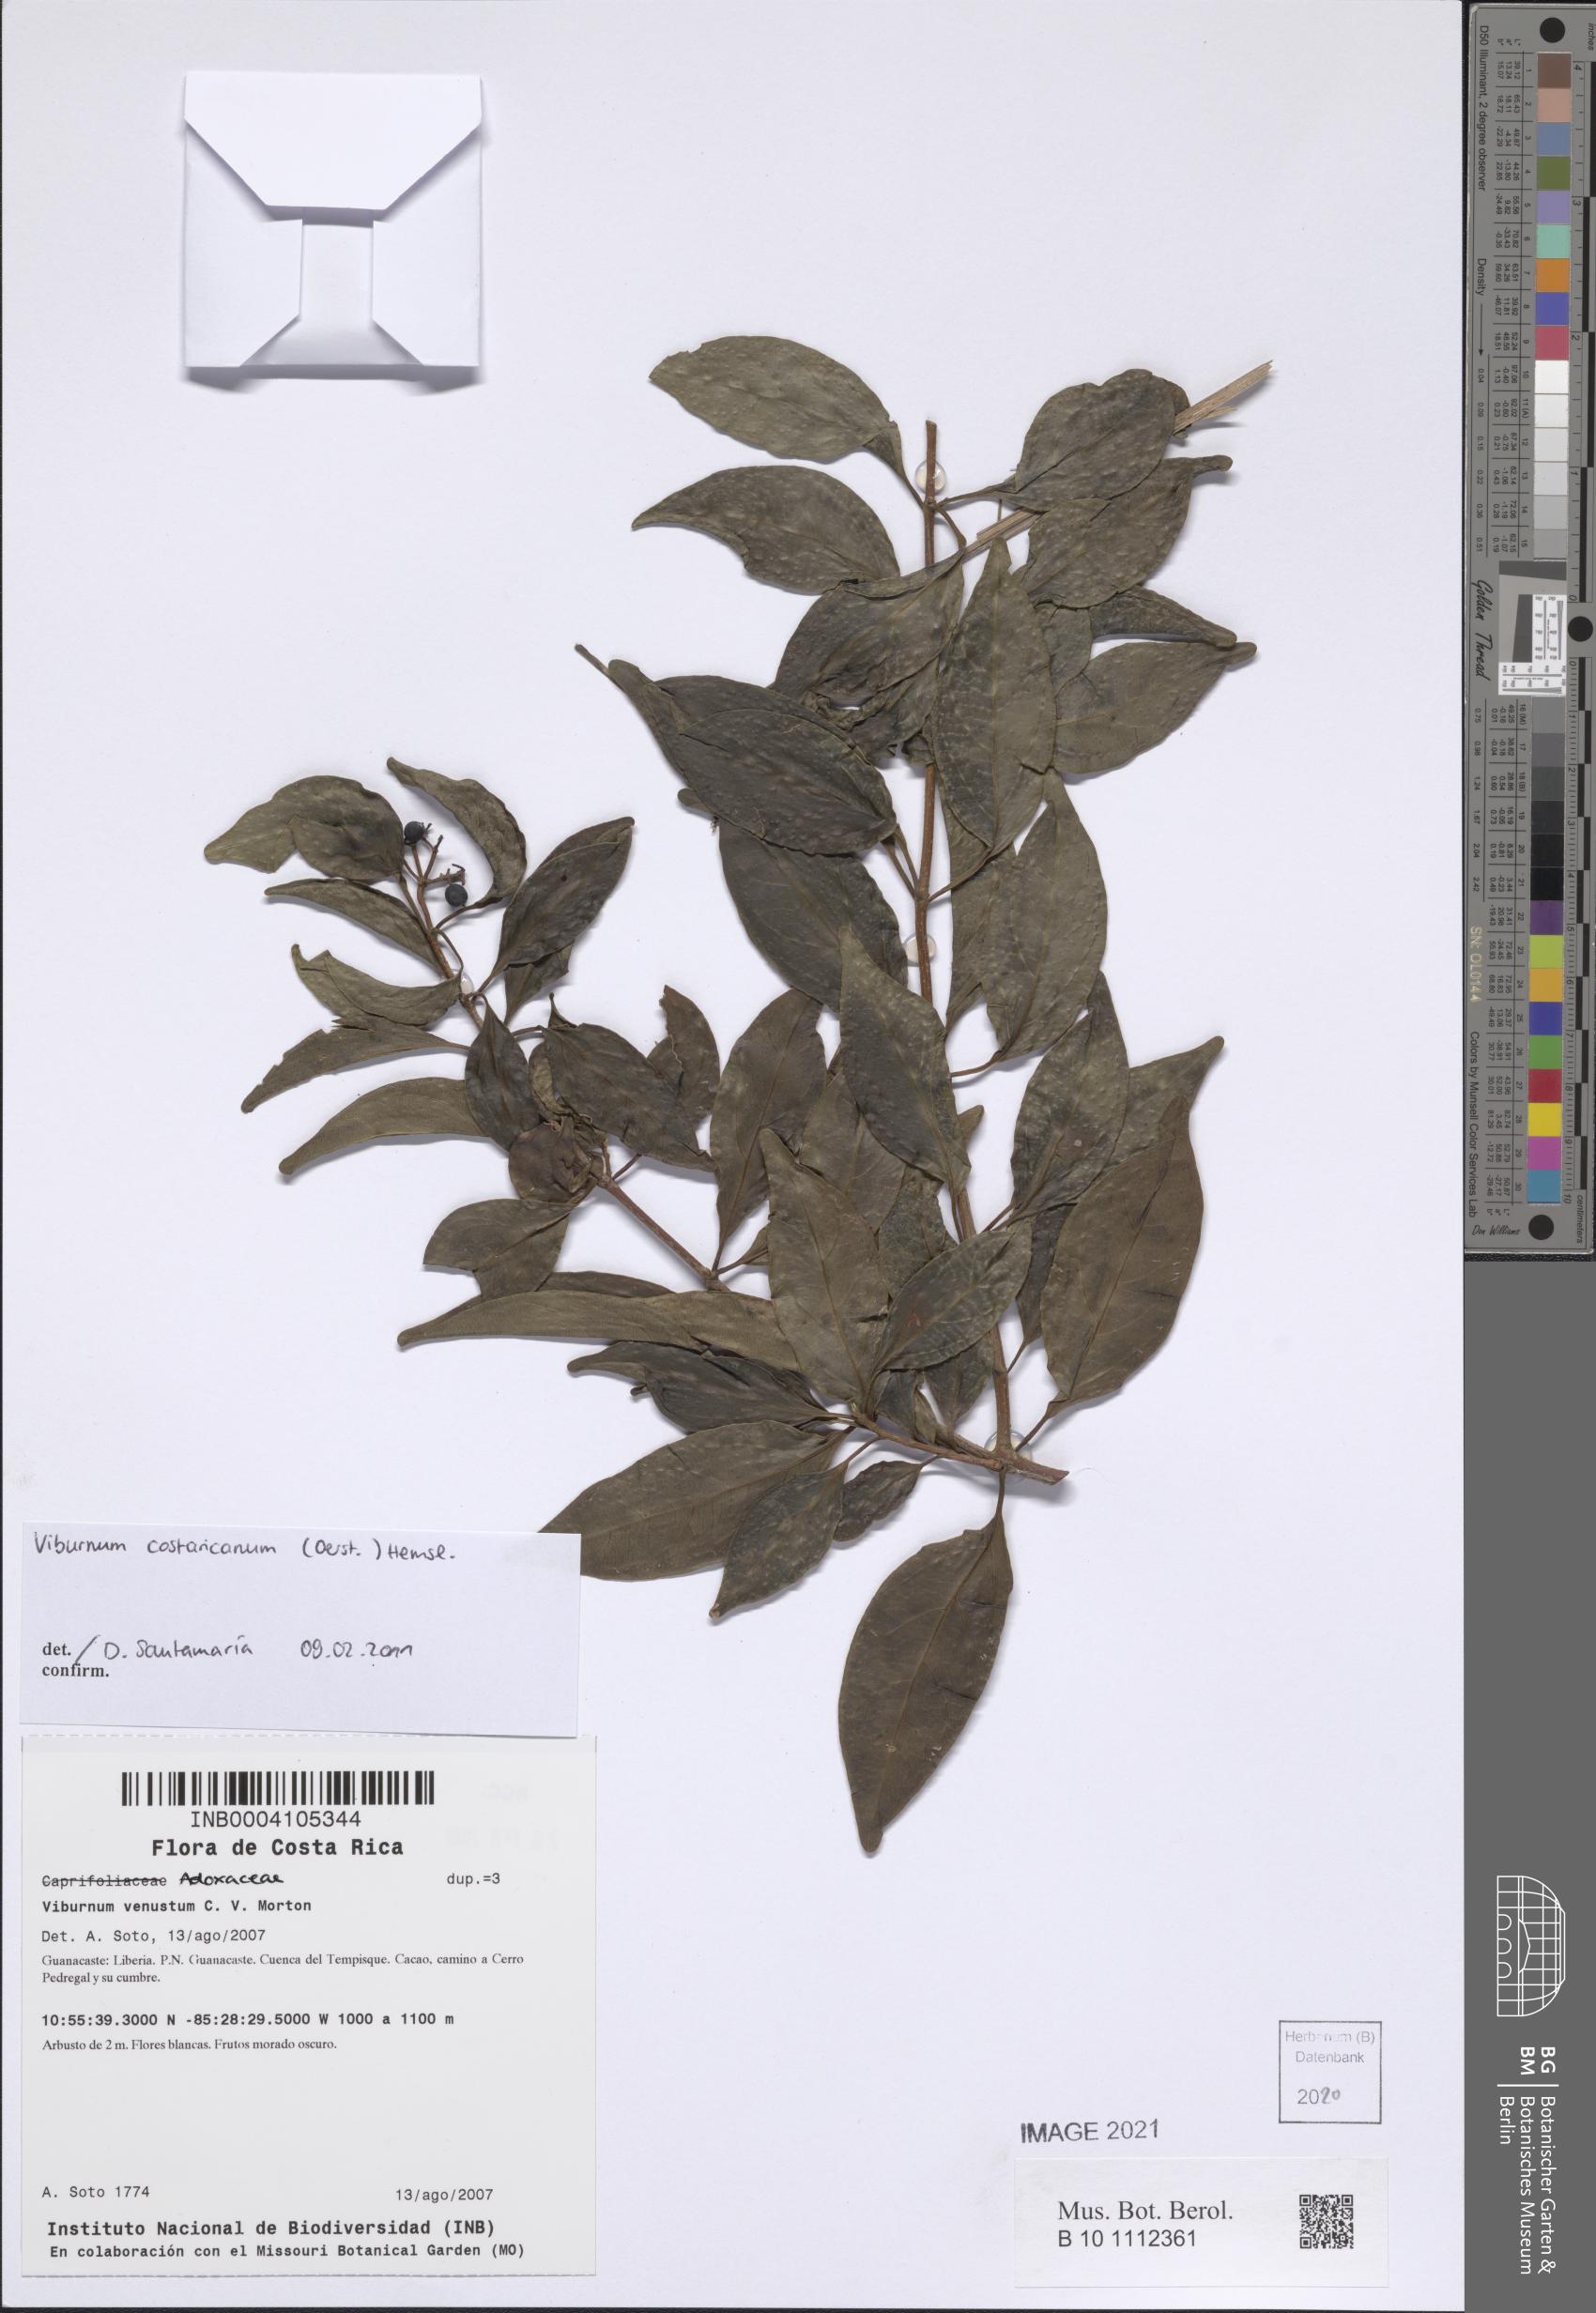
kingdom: Plantae
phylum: Tracheophyta
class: Magnoliopsida
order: Dipsacales
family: Viburnaceae
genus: Viburnum
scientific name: Viburnum costaricanum
